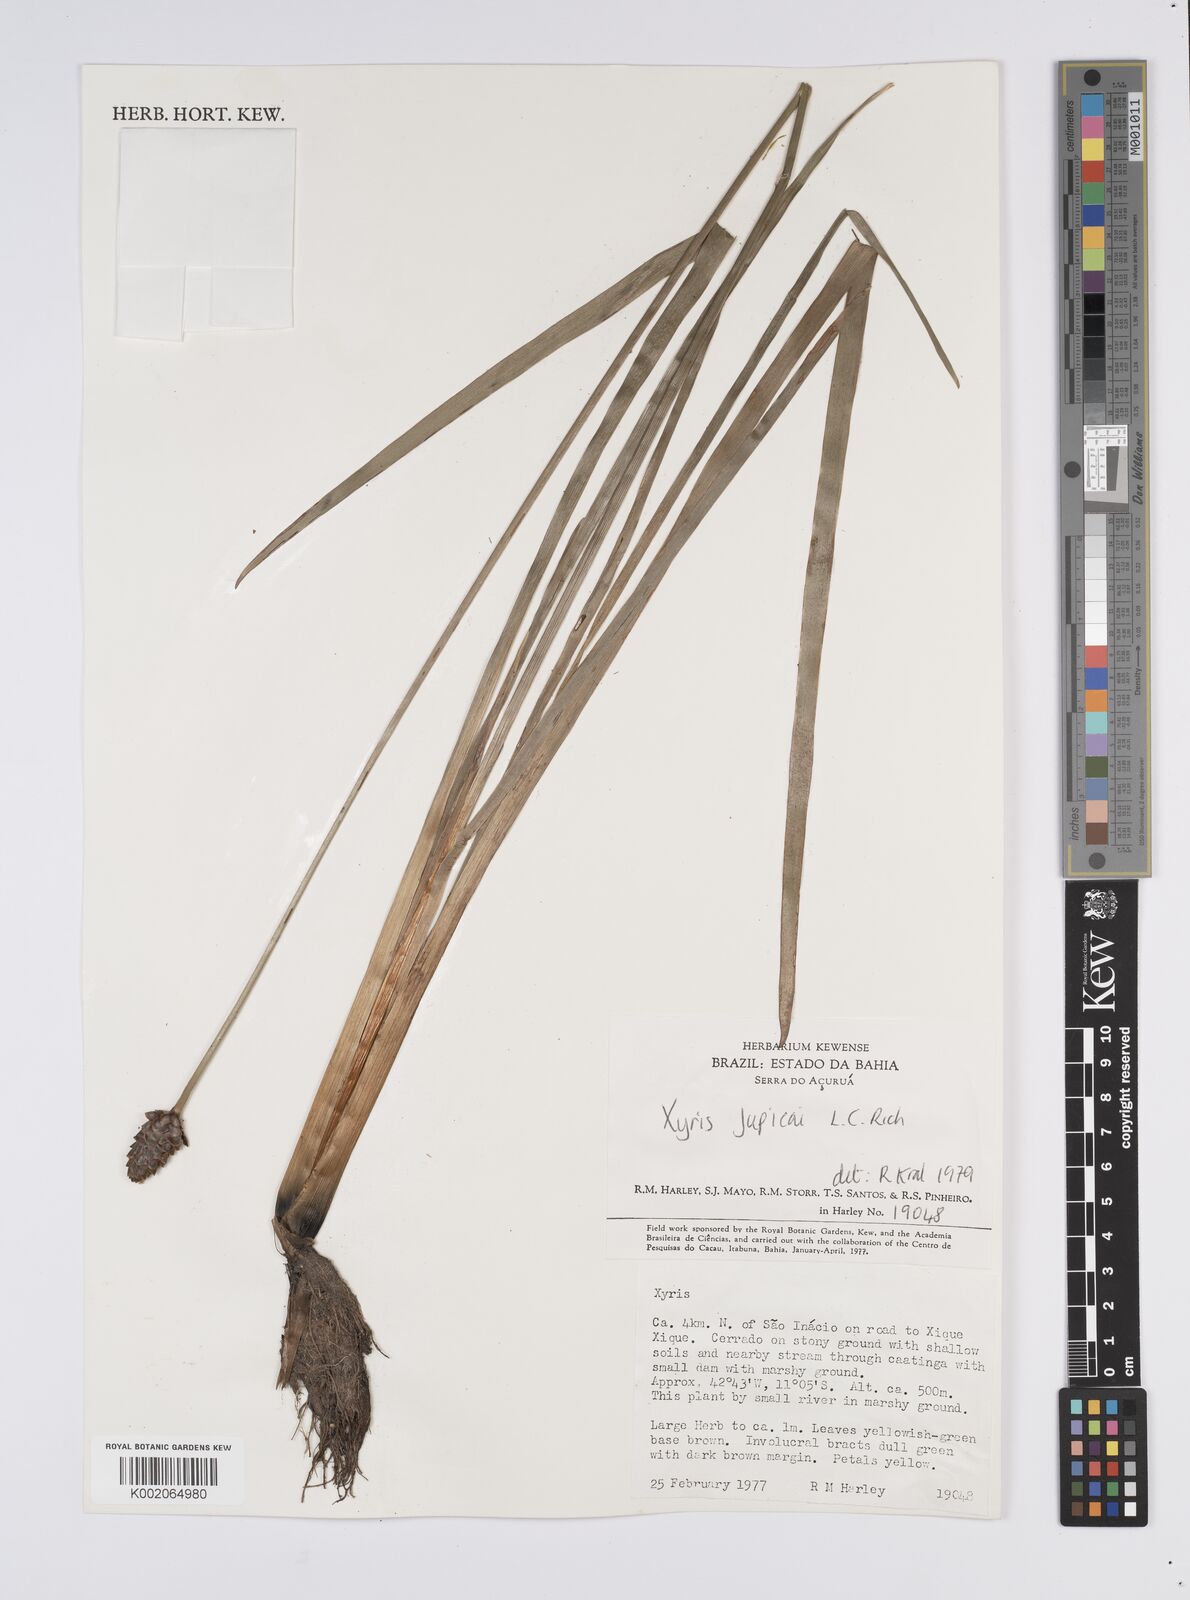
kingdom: Plantae
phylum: Tracheophyta
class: Liliopsida
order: Poales
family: Xyridaceae
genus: Xyris
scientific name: Xyris jupicai
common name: Richard's yelloweyed grass
